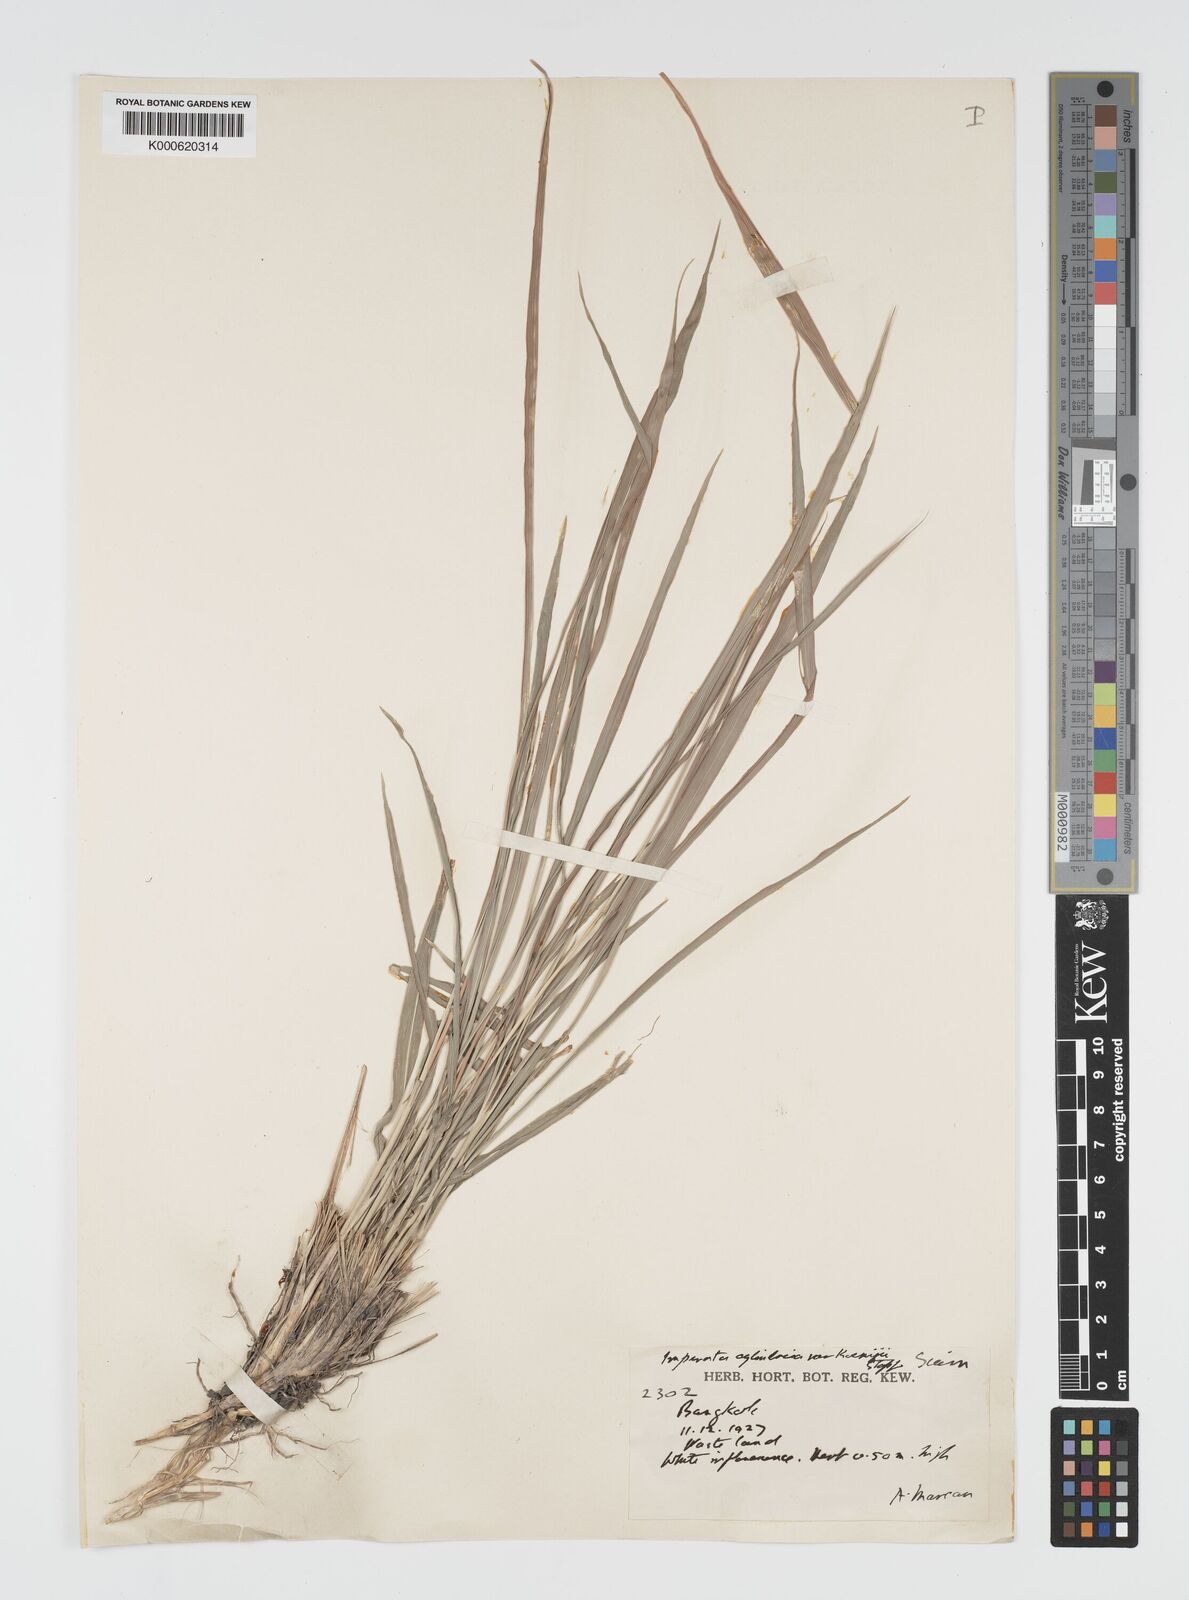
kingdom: Plantae
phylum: Tracheophyta
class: Liliopsida
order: Poales
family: Poaceae
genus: Imperata
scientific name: Imperata cylindrica
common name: Cogongrass
